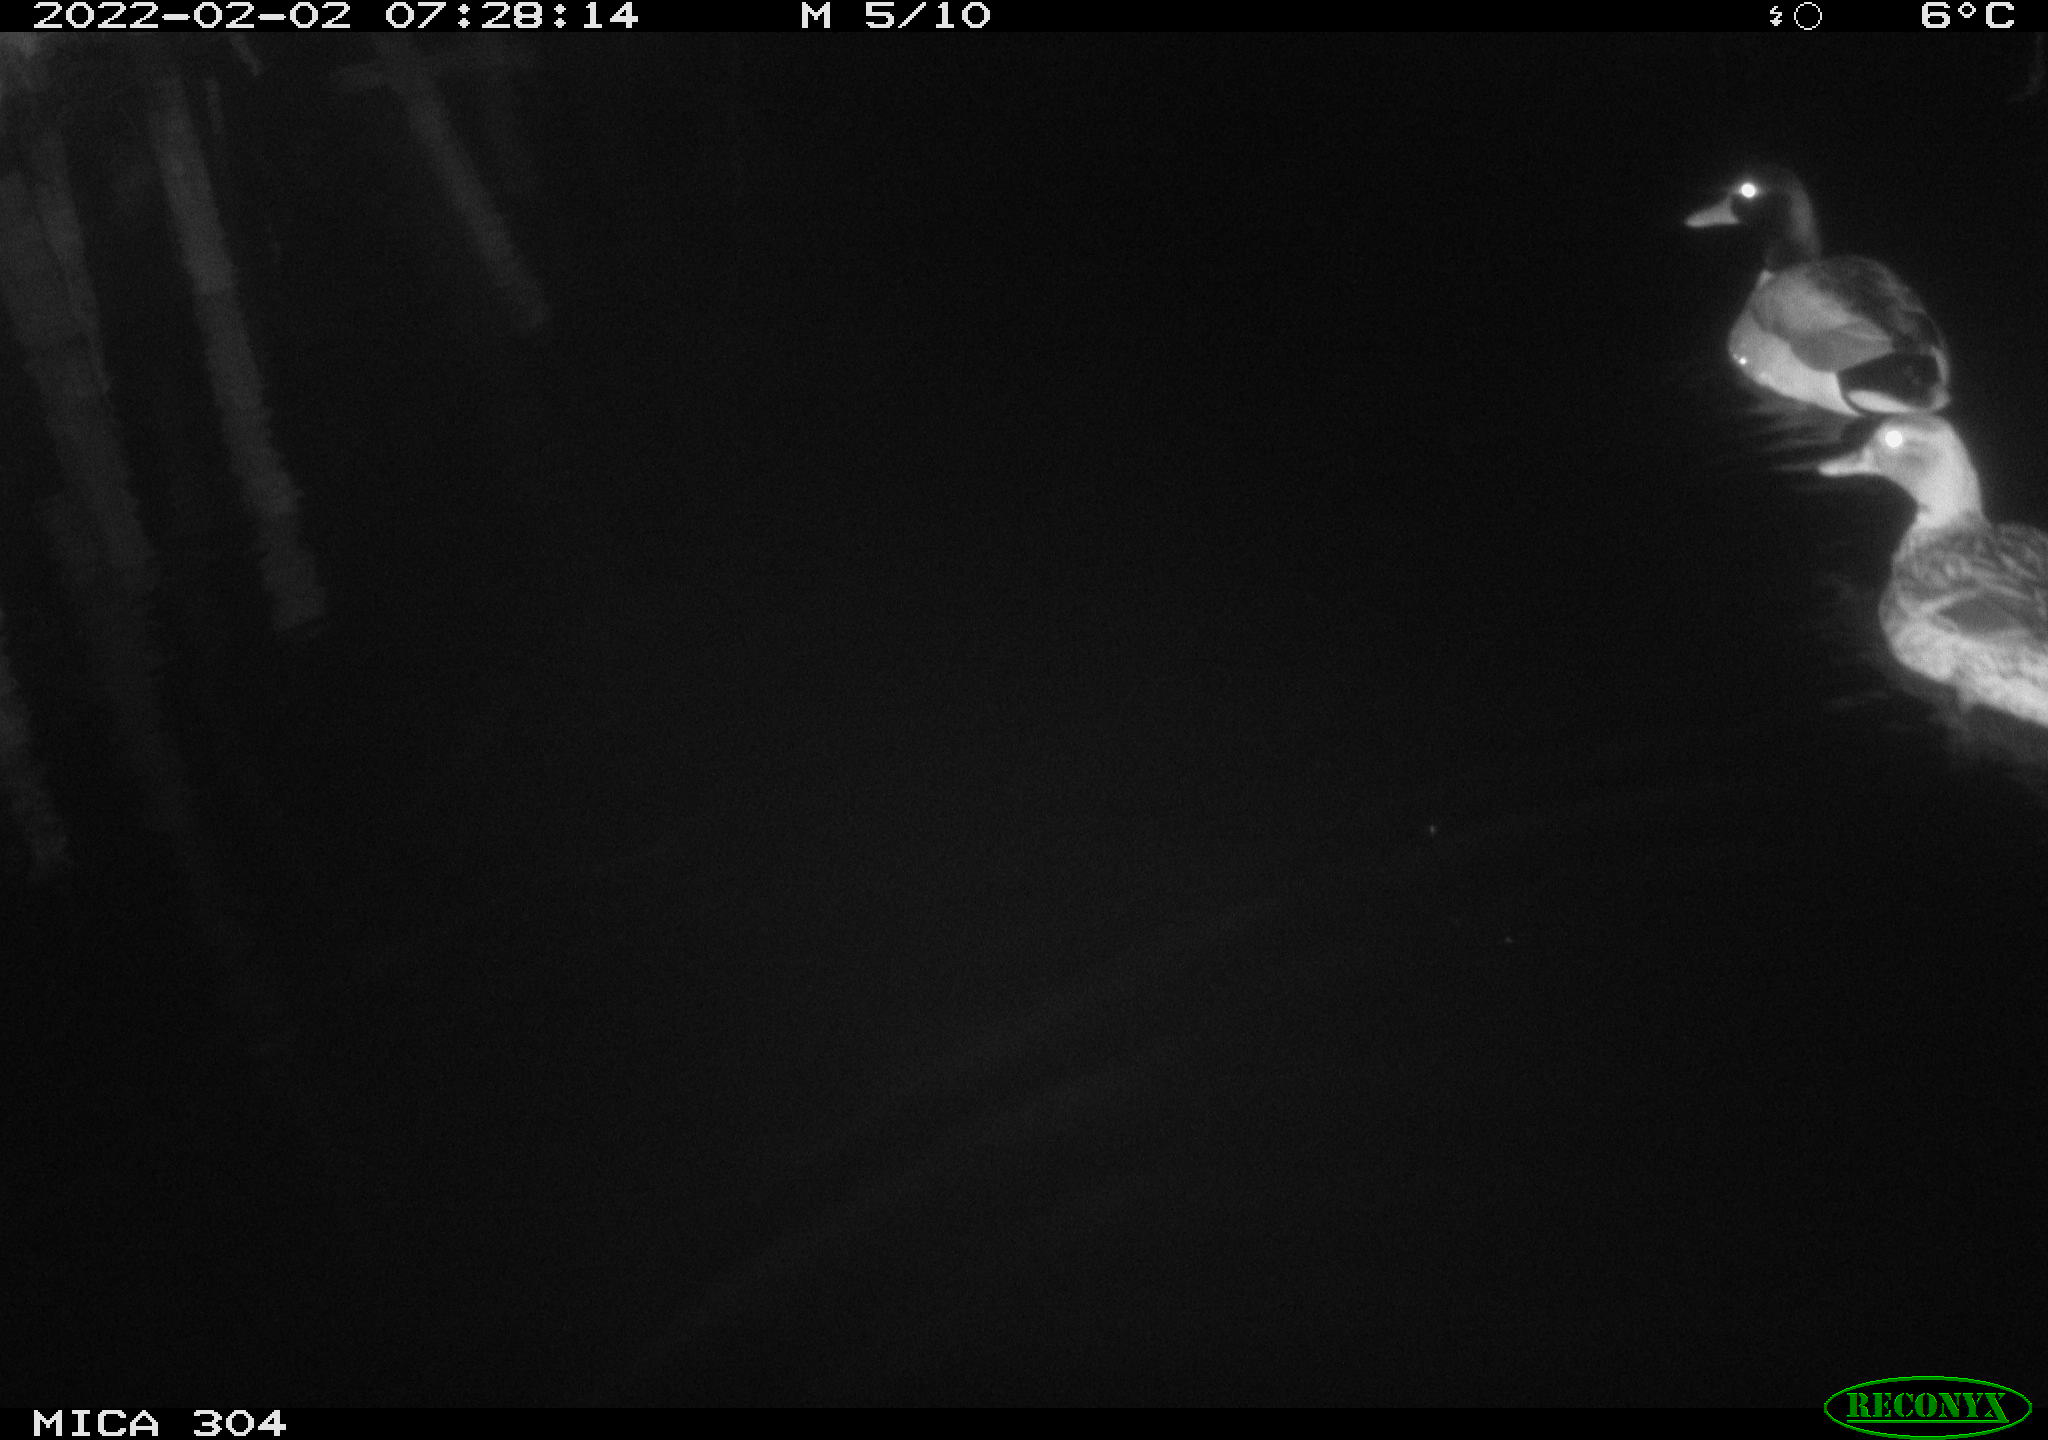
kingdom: Animalia
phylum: Chordata
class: Aves
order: Anseriformes
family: Anatidae
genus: Anas
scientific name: Anas
